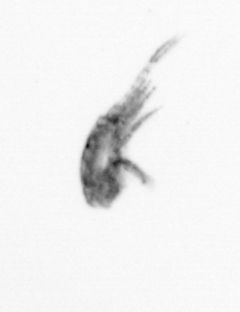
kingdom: Animalia
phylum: Arthropoda
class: Maxillopoda
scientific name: Maxillopoda
